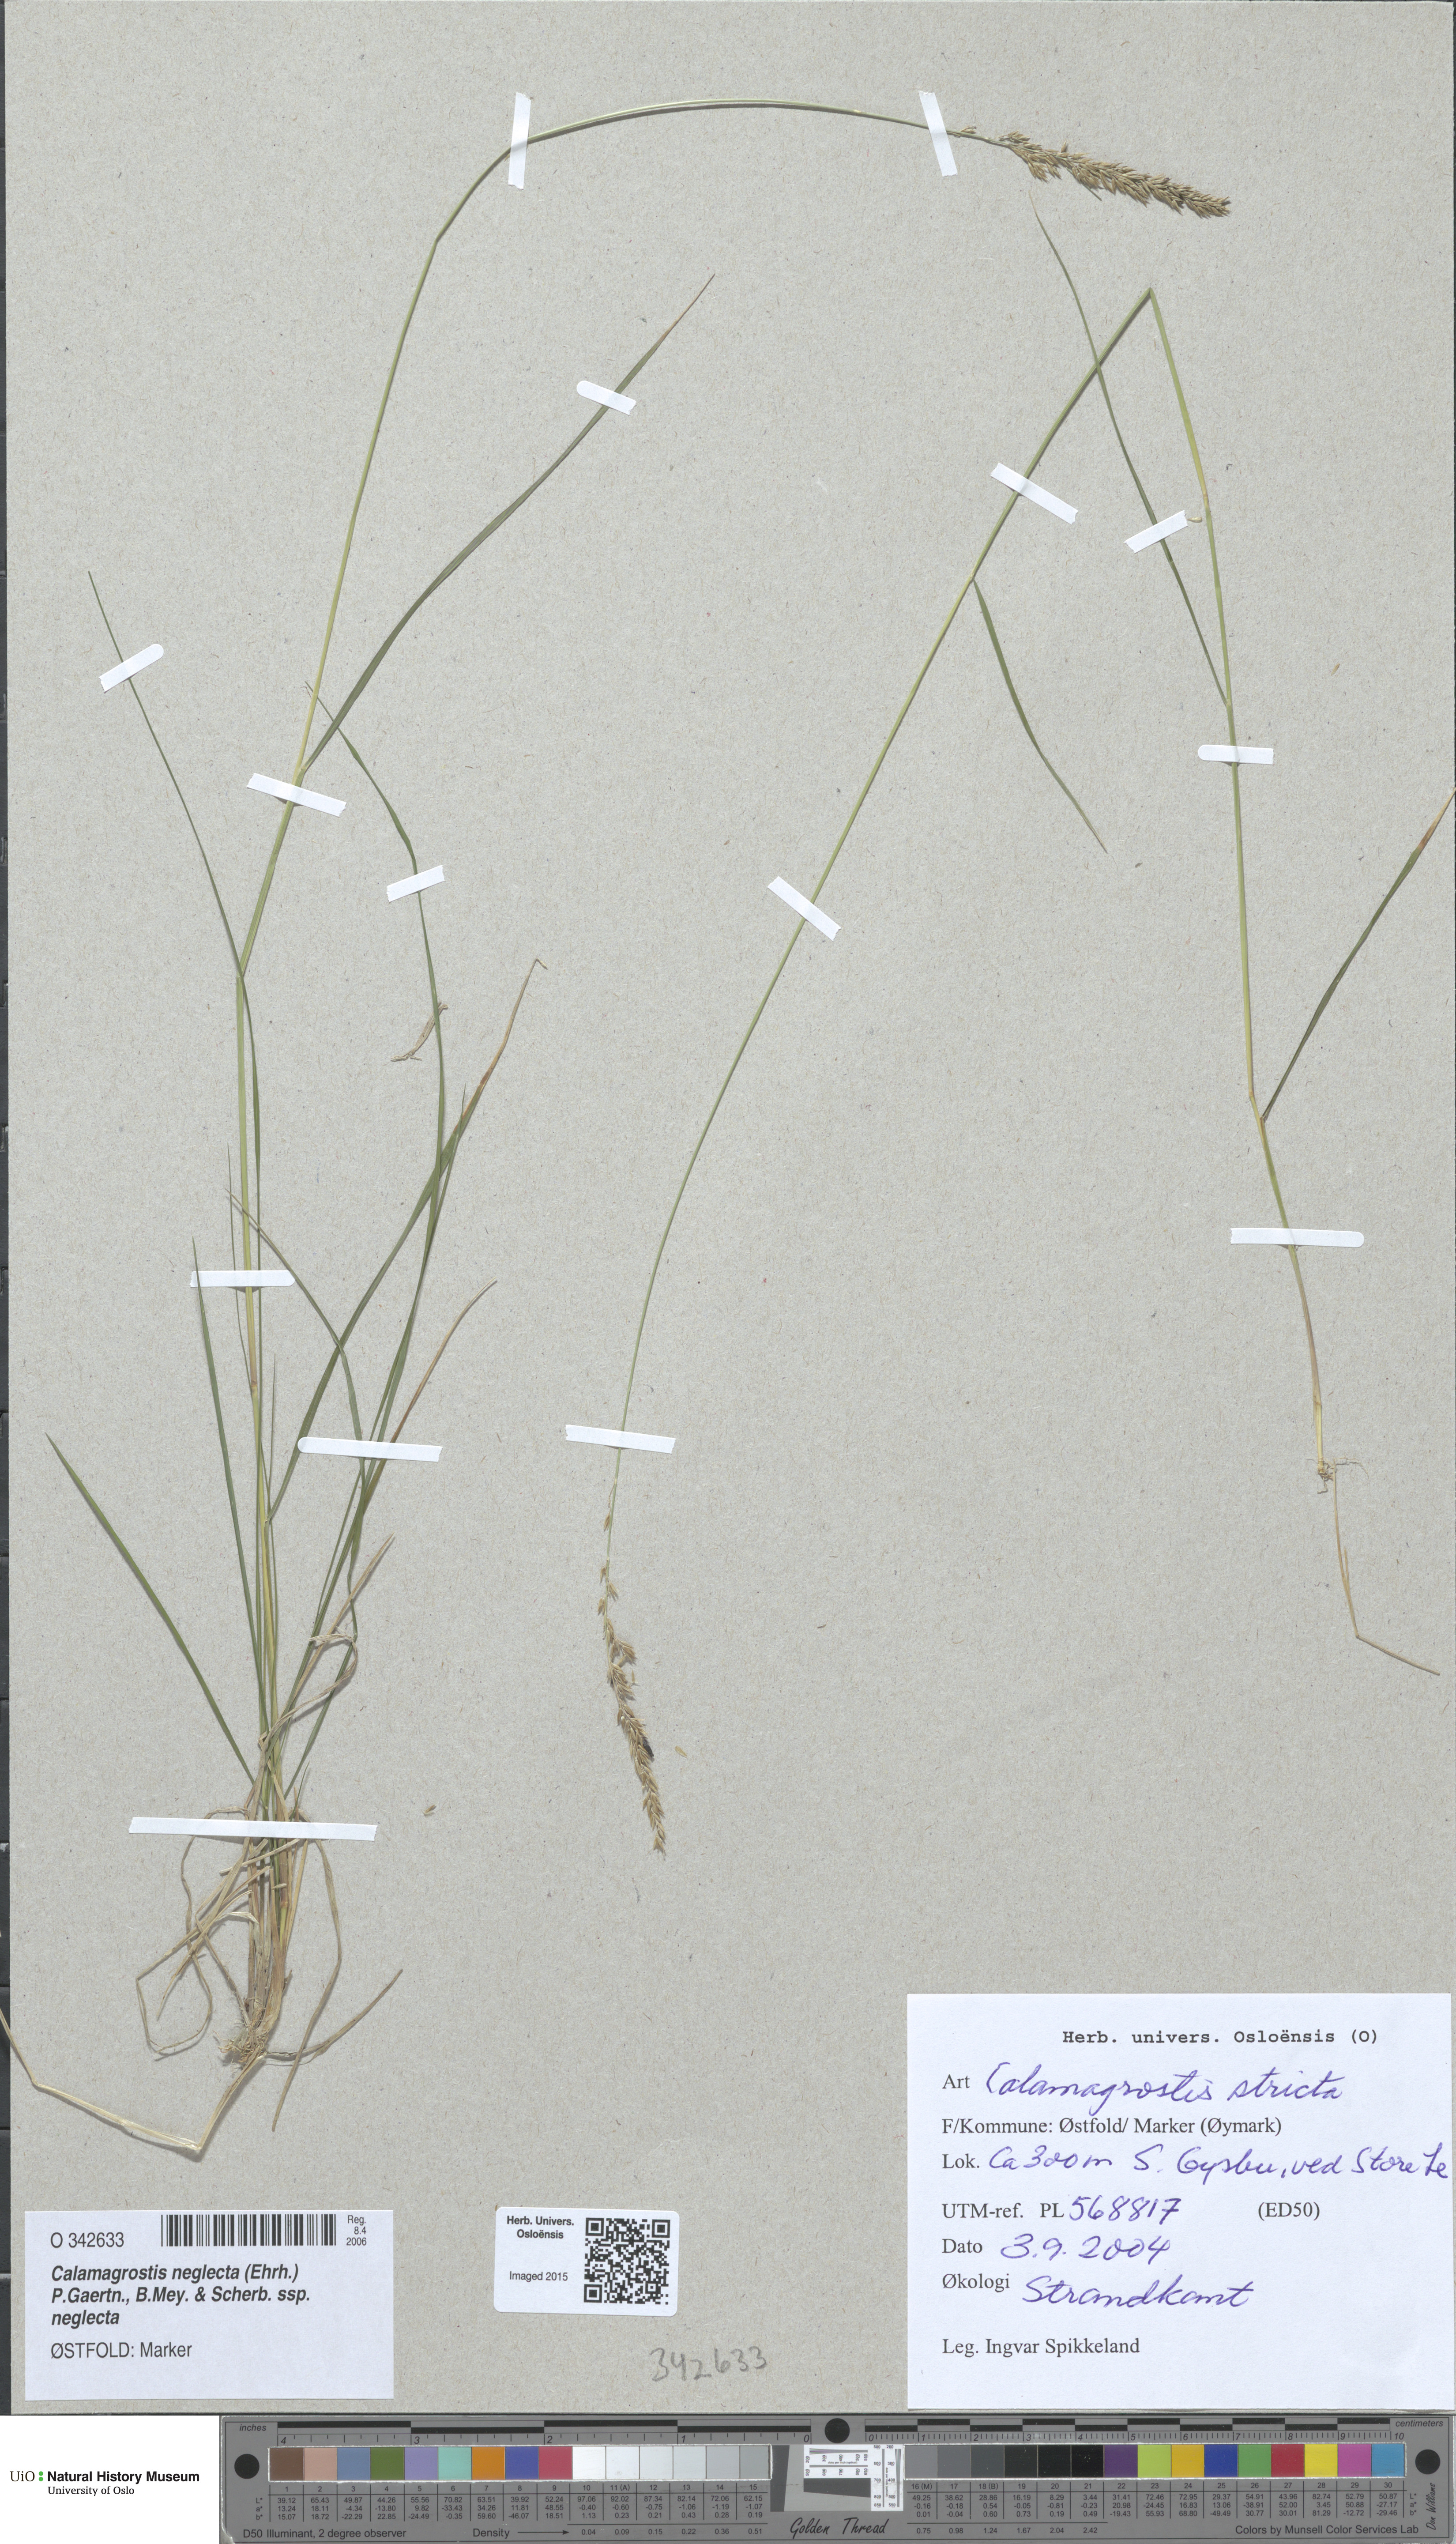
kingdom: Plantae
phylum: Tracheophyta
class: Liliopsida
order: Poales
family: Poaceae
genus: Achnatherum
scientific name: Achnatherum calamagrostis
